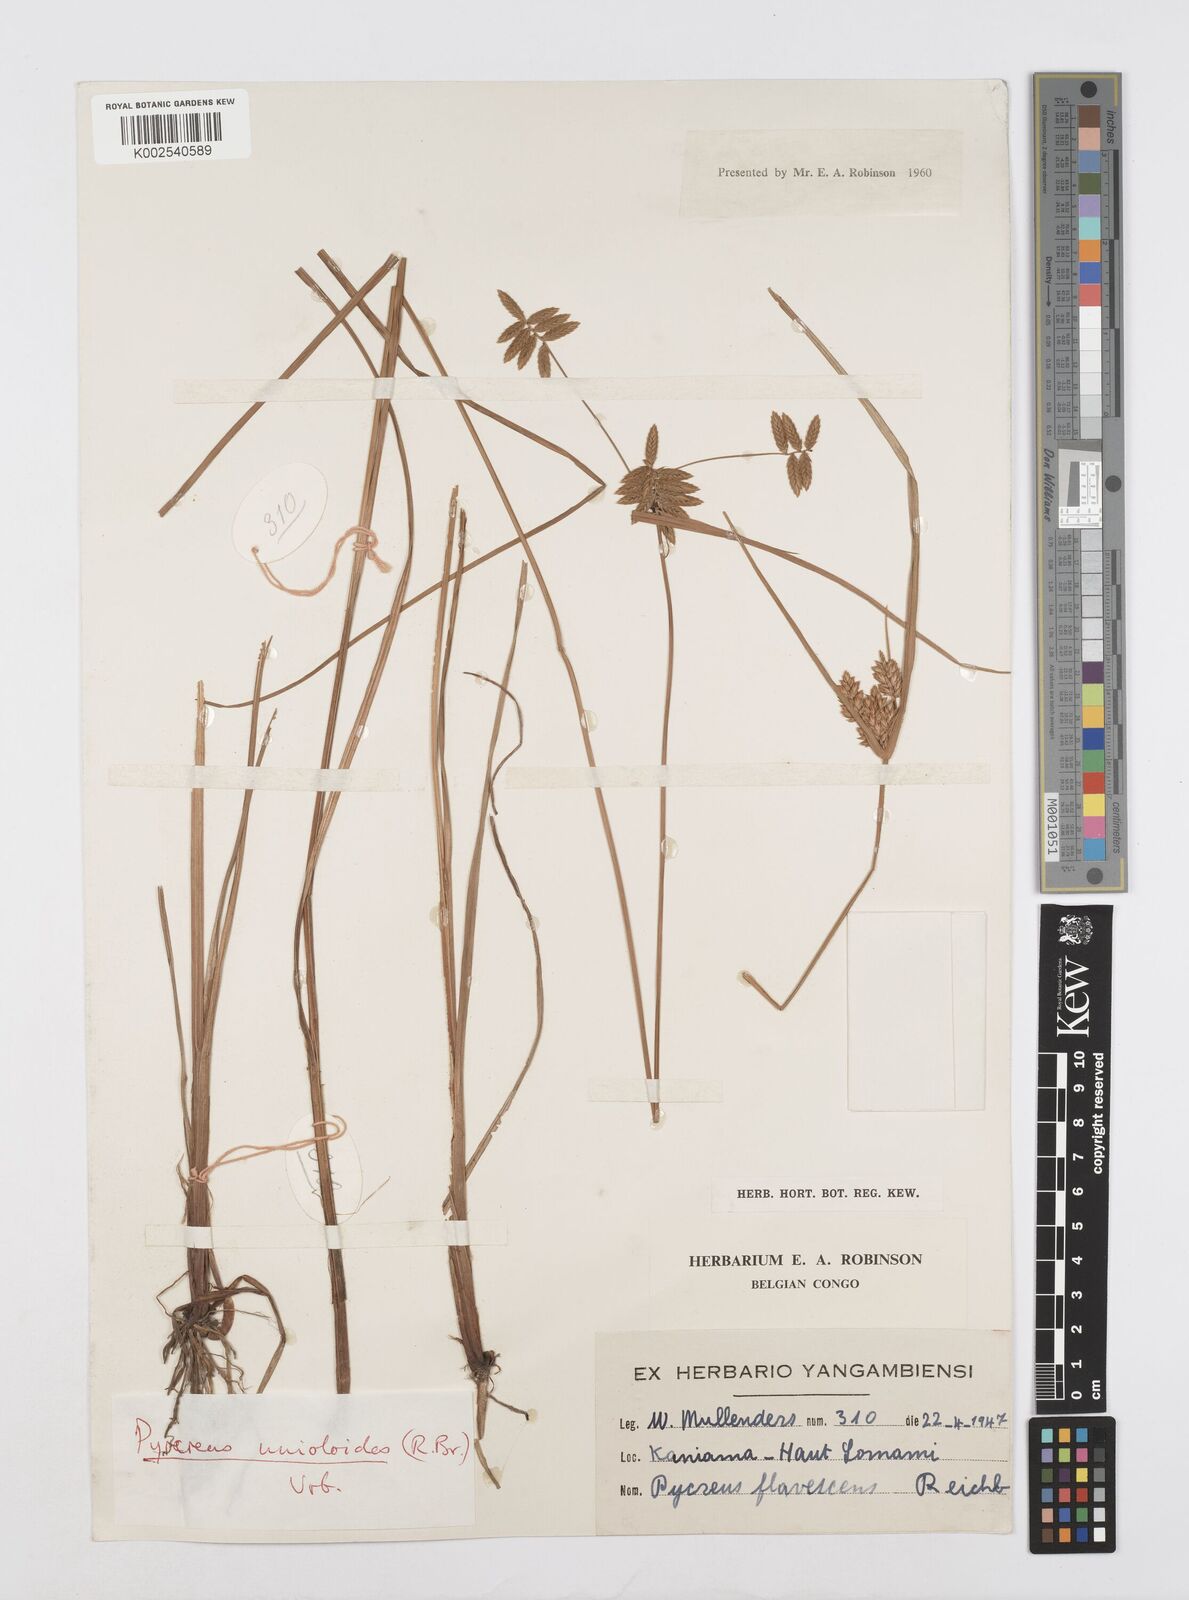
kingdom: Plantae
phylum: Tracheophyta
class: Liliopsida
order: Poales
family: Cyperaceae
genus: Cyperus
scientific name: Cyperus unioloides
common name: Uniola flatsedge
